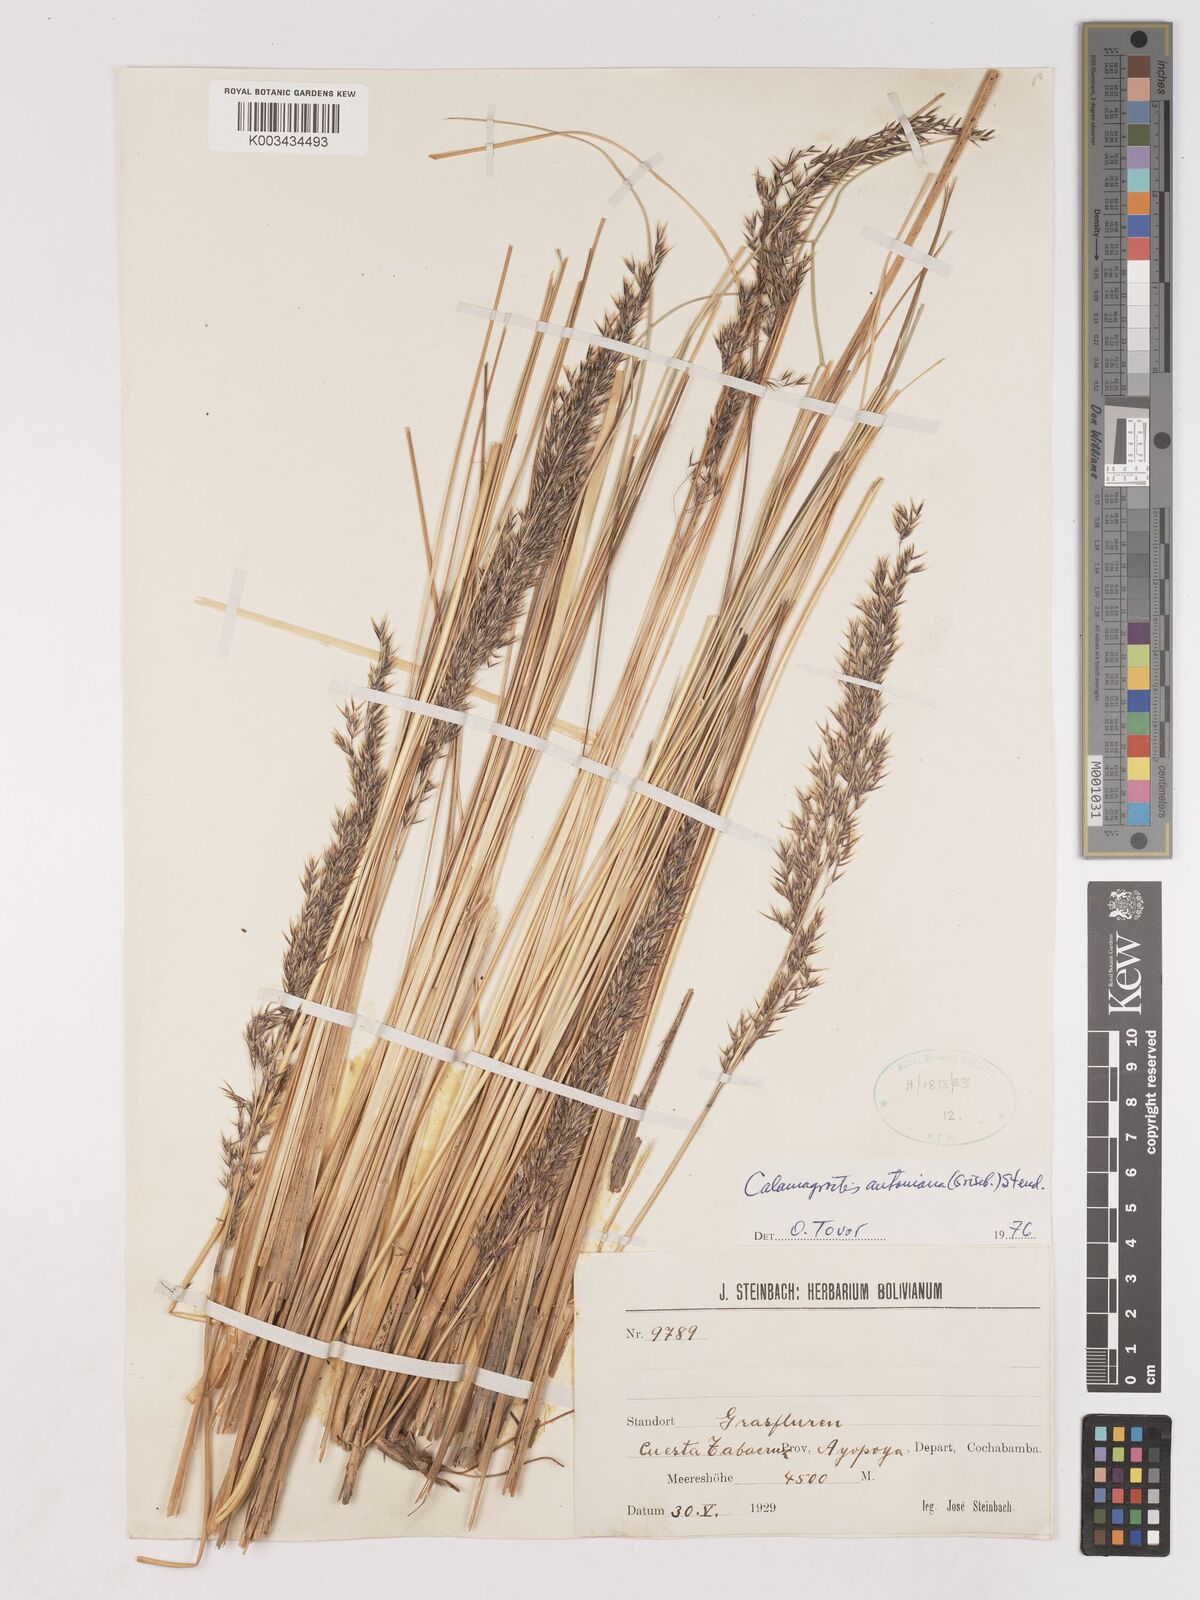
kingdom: Plantae
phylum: Tracheophyta
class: Liliopsida
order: Poales
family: Poaceae
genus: Cinnagrostis
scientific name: Cinnagrostis rigida
